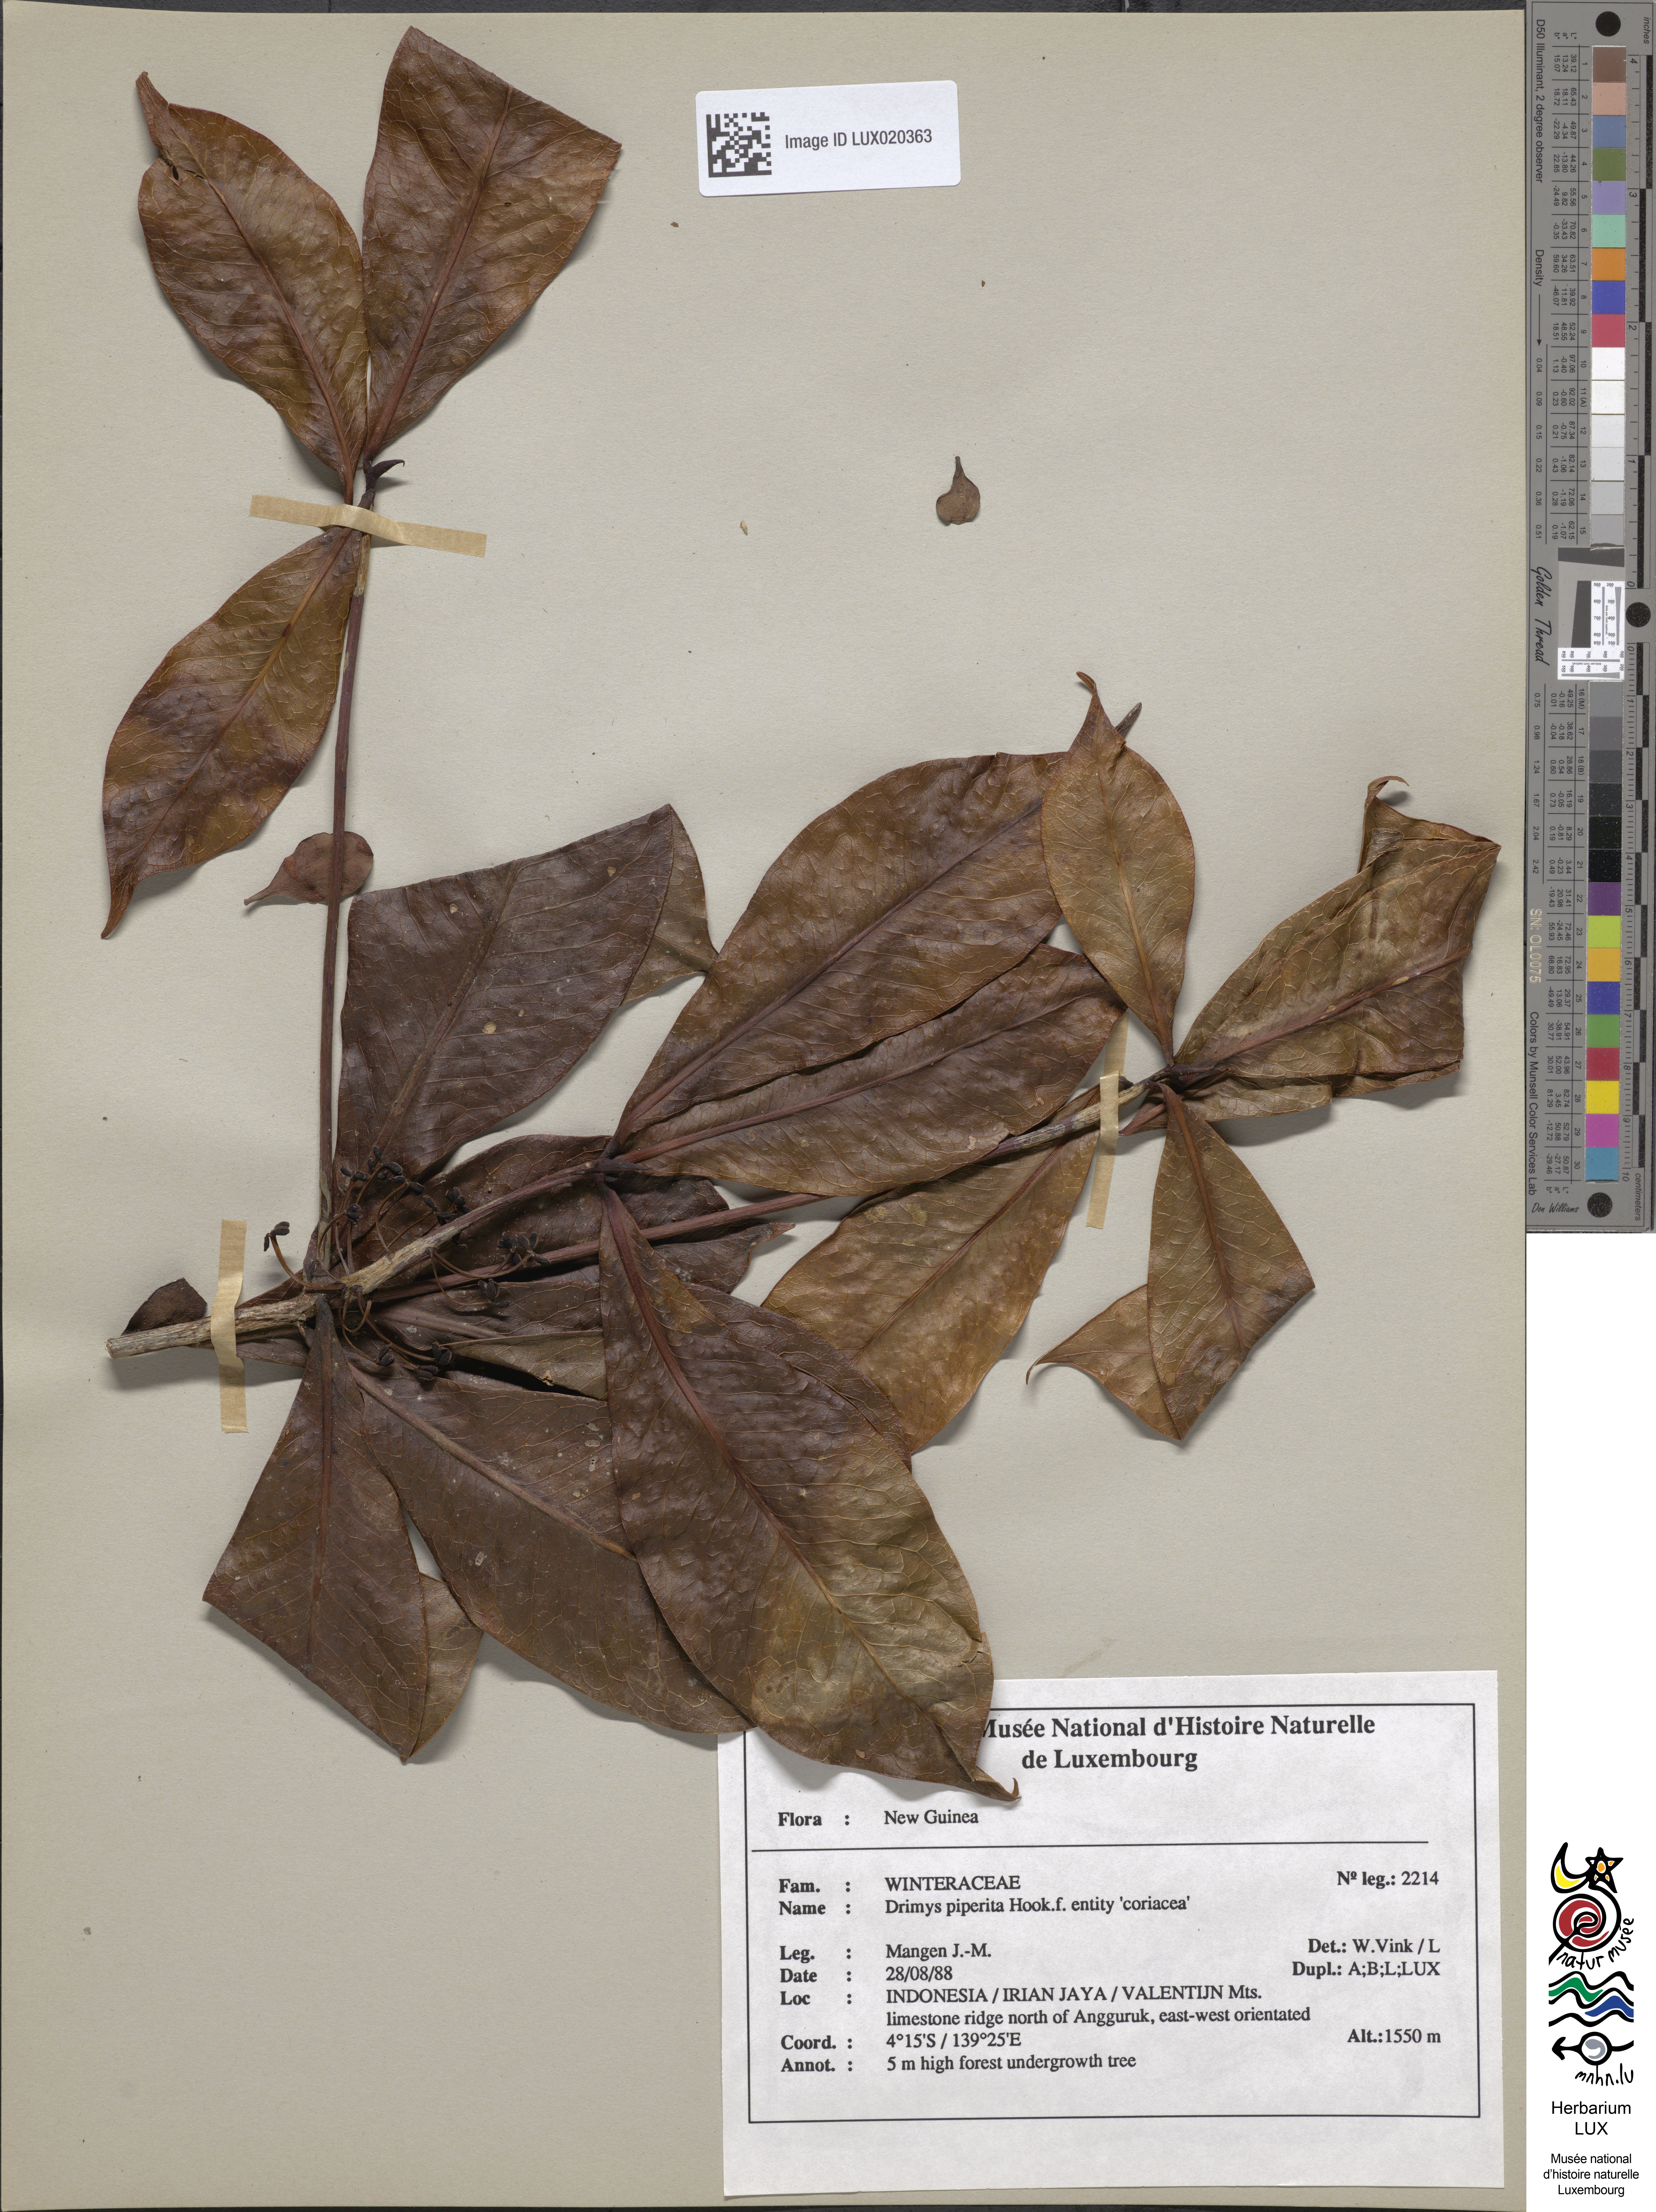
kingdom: Plantae
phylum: Tracheophyta
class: Magnoliopsida
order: Canellales
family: Winteraceae
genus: Drimys
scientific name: Drimys piperita
